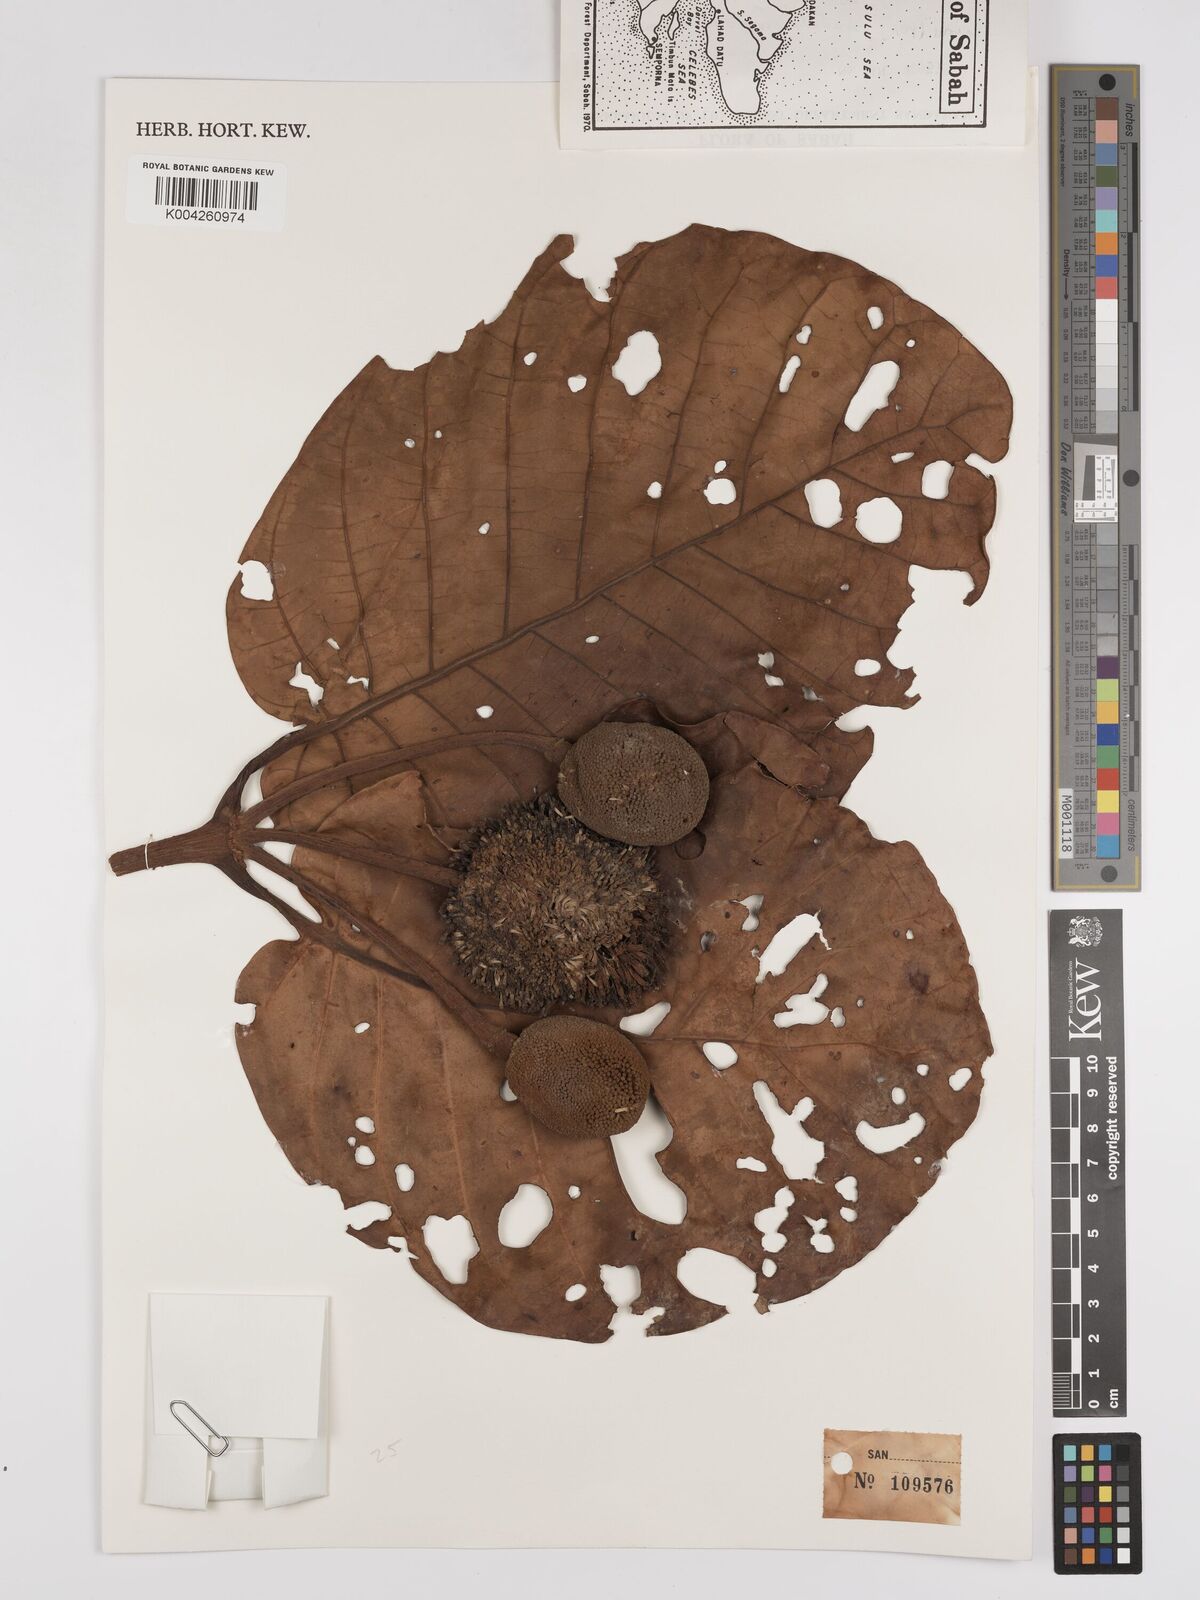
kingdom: Plantae
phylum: Tracheophyta
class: Magnoliopsida
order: Gentianales
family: Rubiaceae
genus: Neonauclea
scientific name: Neonauclea gigantea
